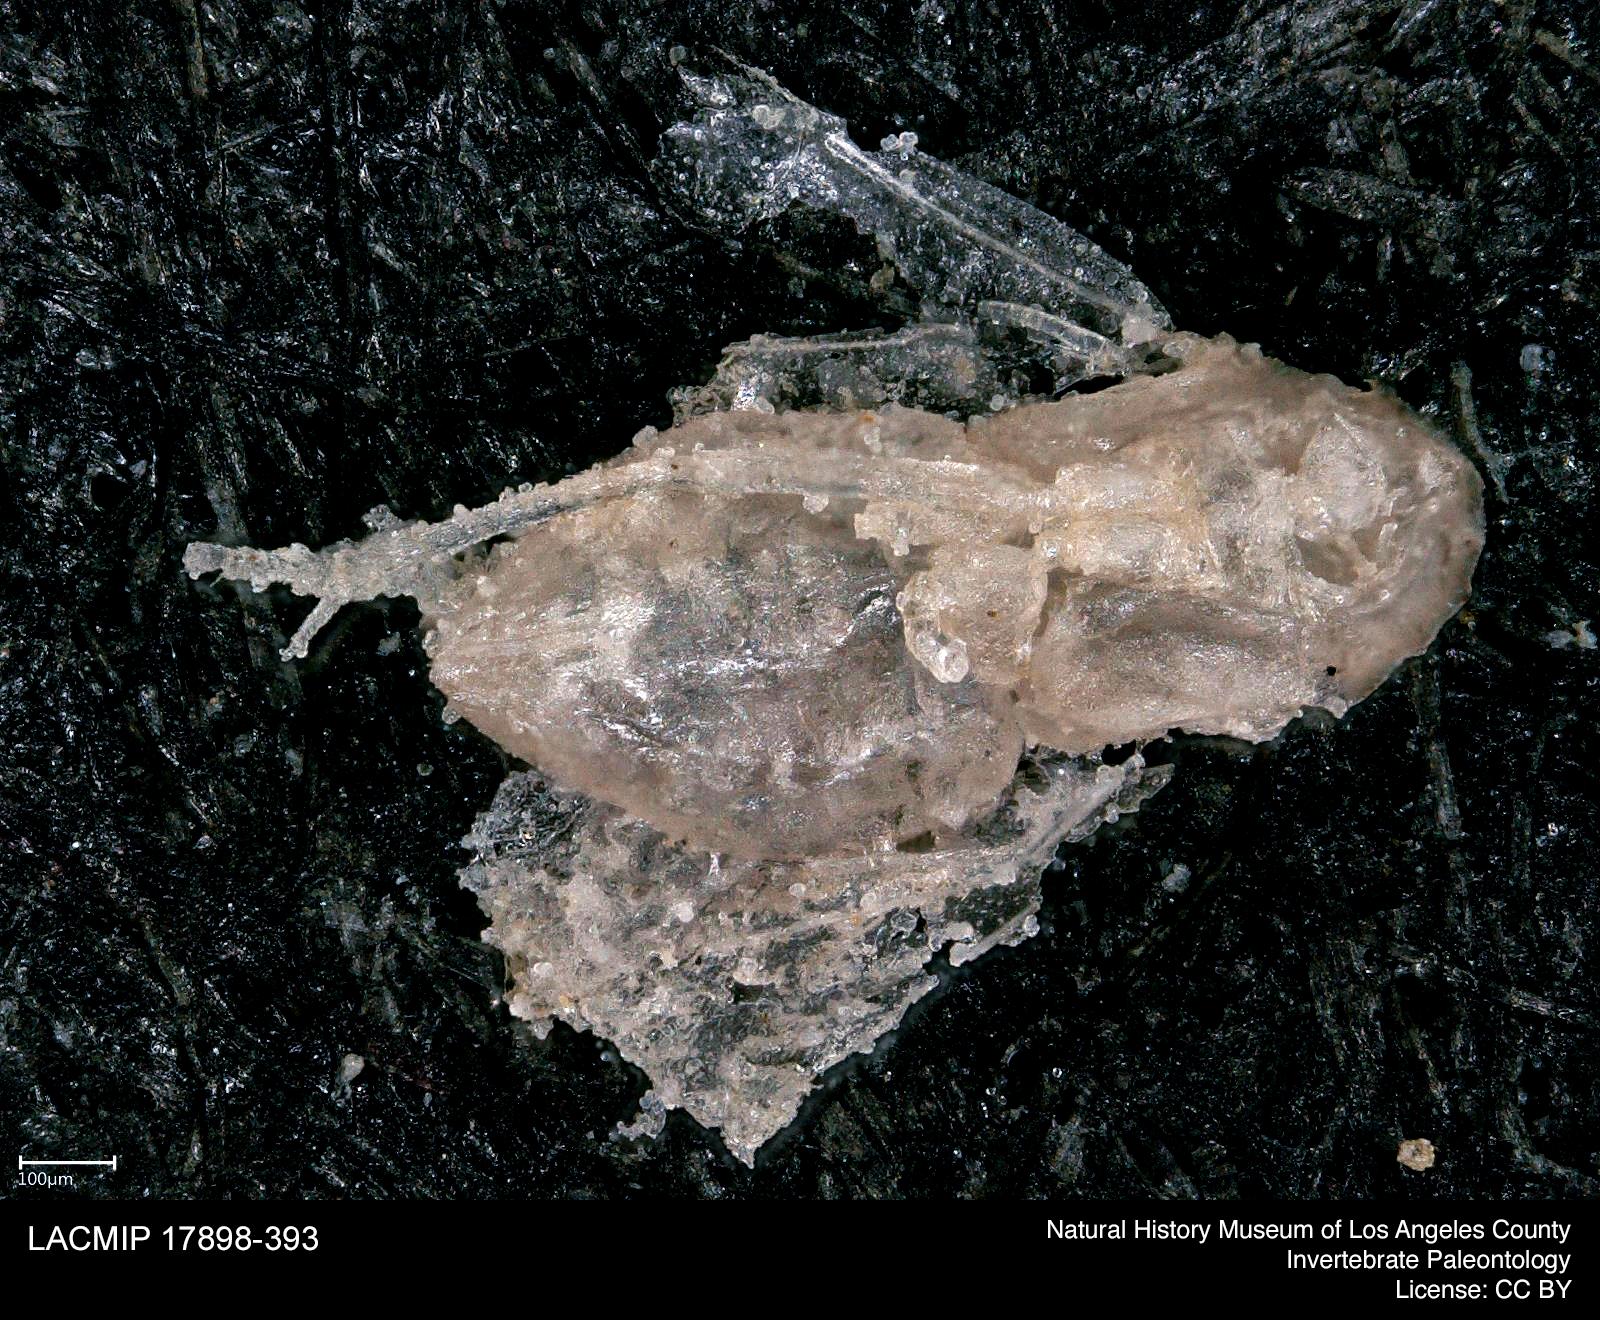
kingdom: Animalia
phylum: Arthropoda
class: Insecta
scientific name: Insecta
